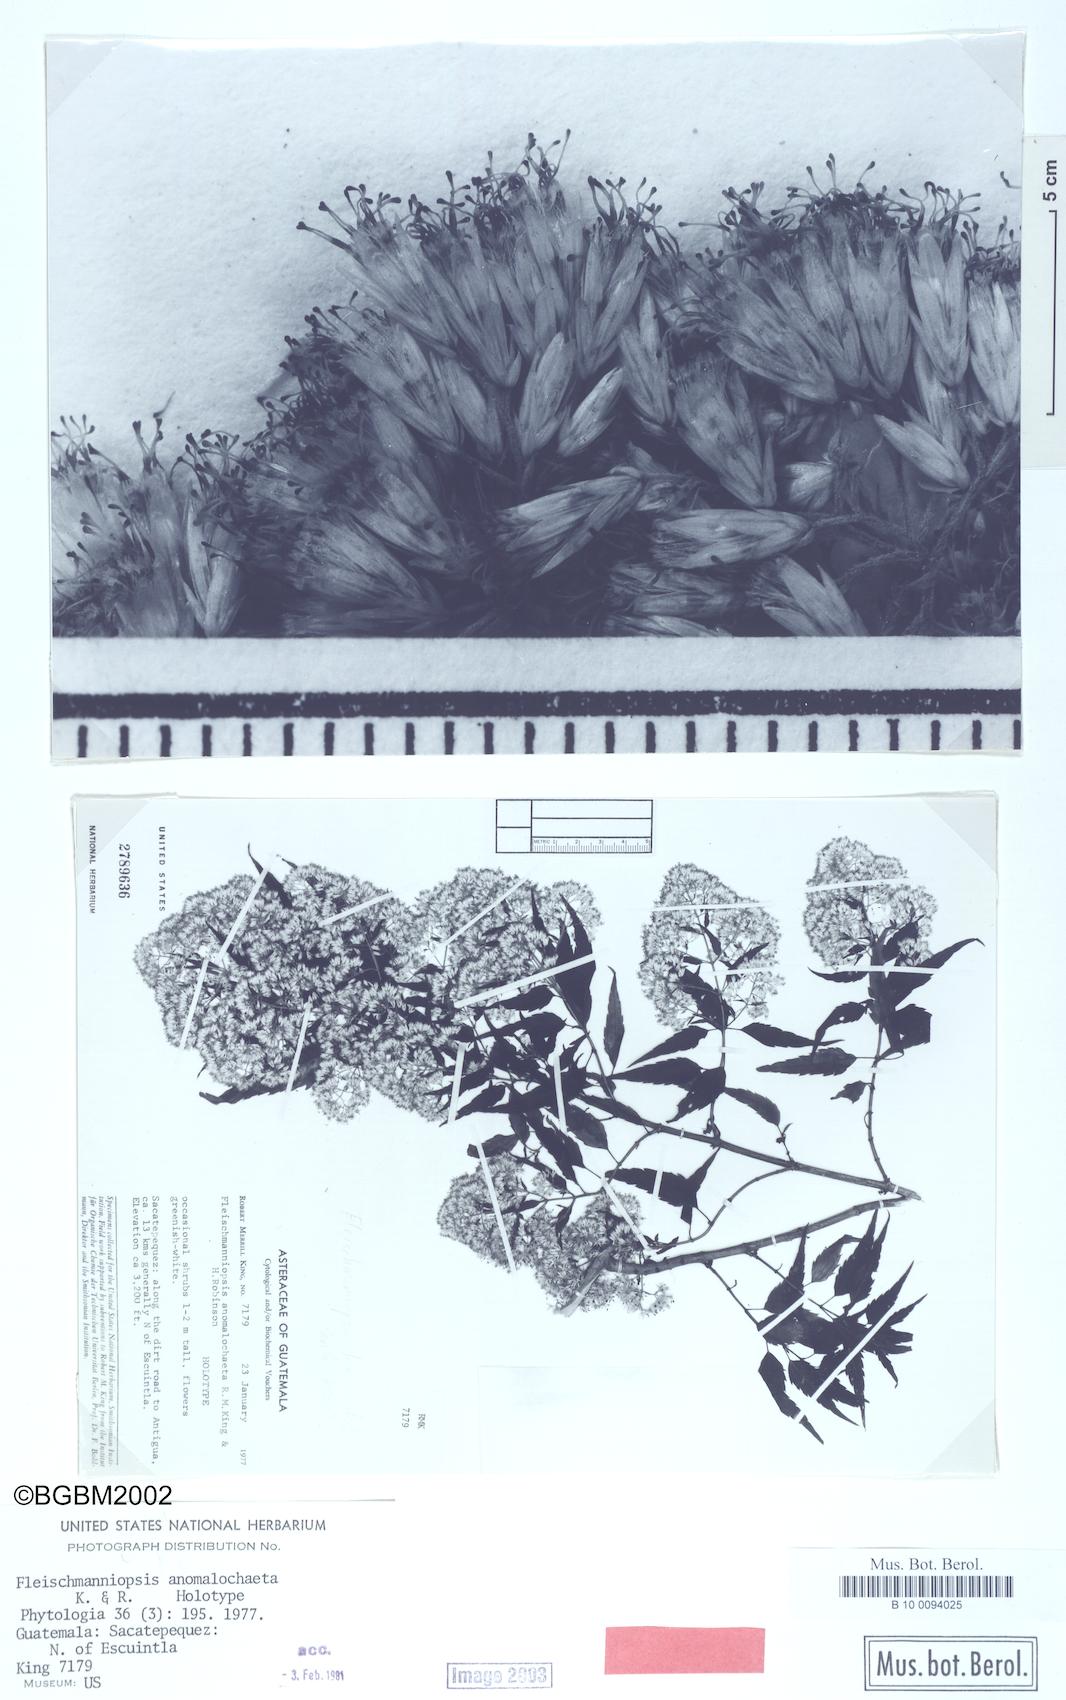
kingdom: Plantae
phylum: Tracheophyta
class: Magnoliopsida
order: Asterales
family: Asteraceae
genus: Fleischmanniopsis
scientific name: Fleischmanniopsis anomalochaeta
